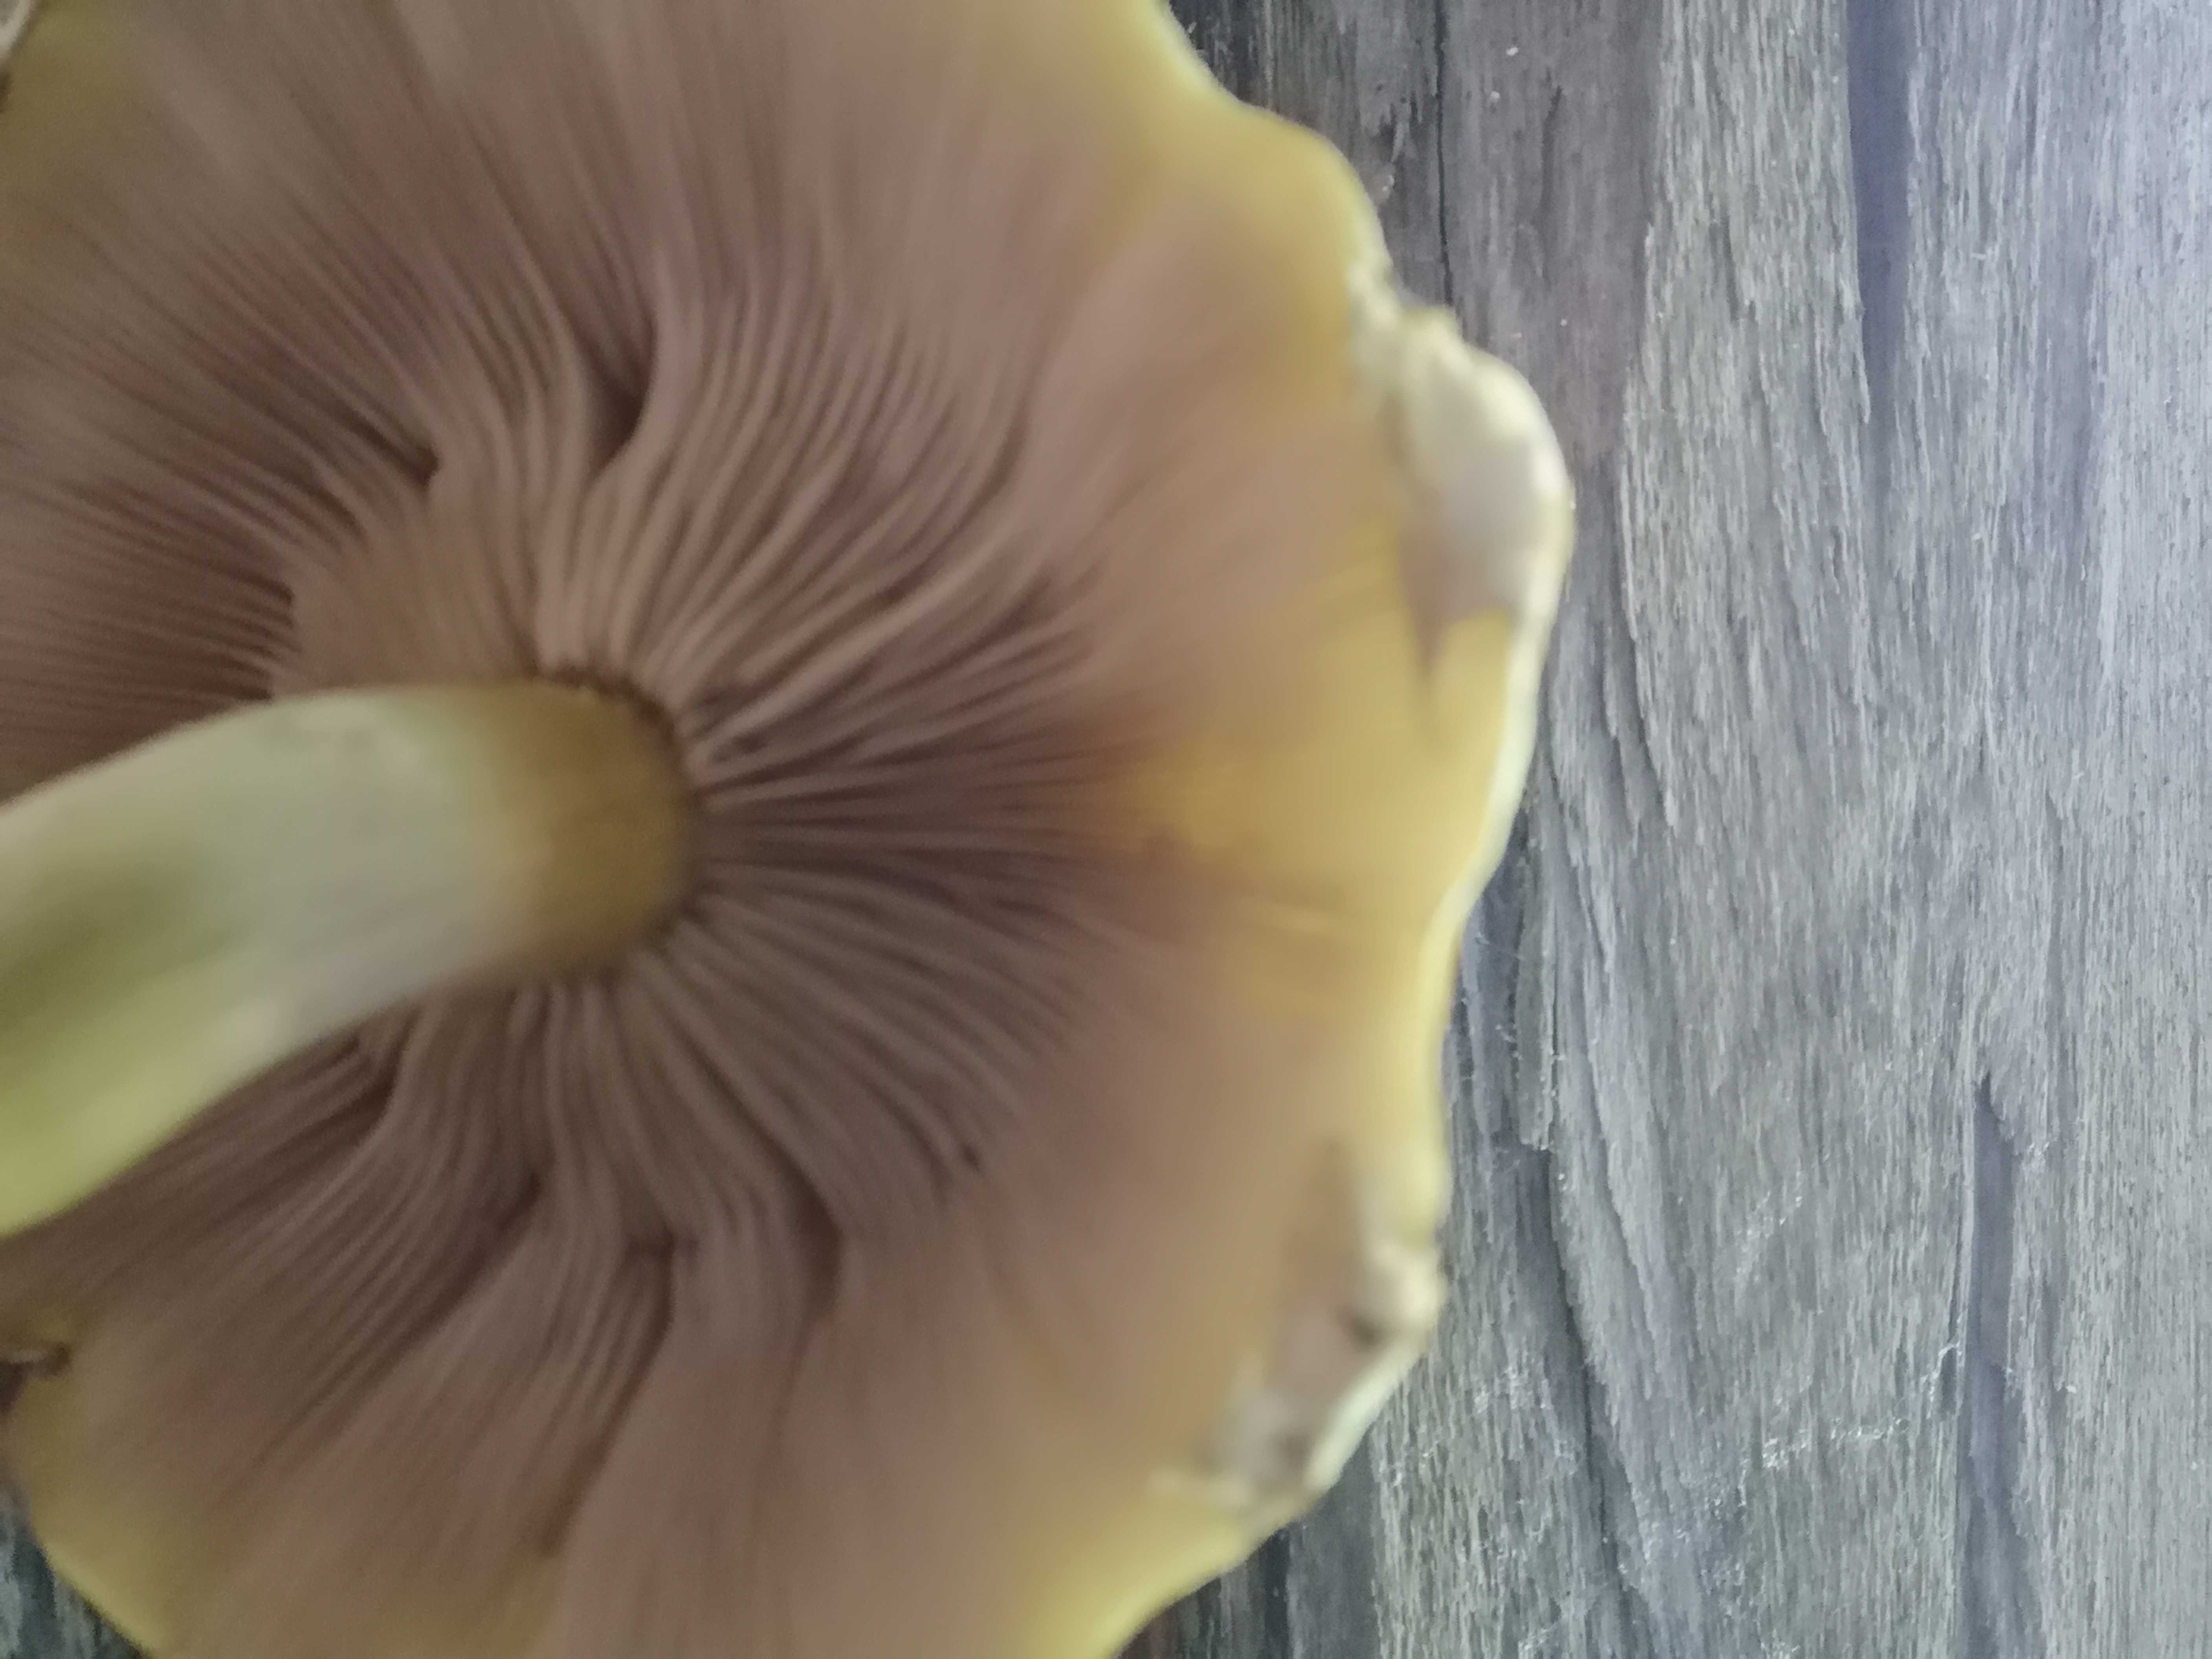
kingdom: Fungi
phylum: Basidiomycota
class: Agaricomycetes
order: Agaricales
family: Strophariaceae
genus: Pholiota
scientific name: Pholiota
